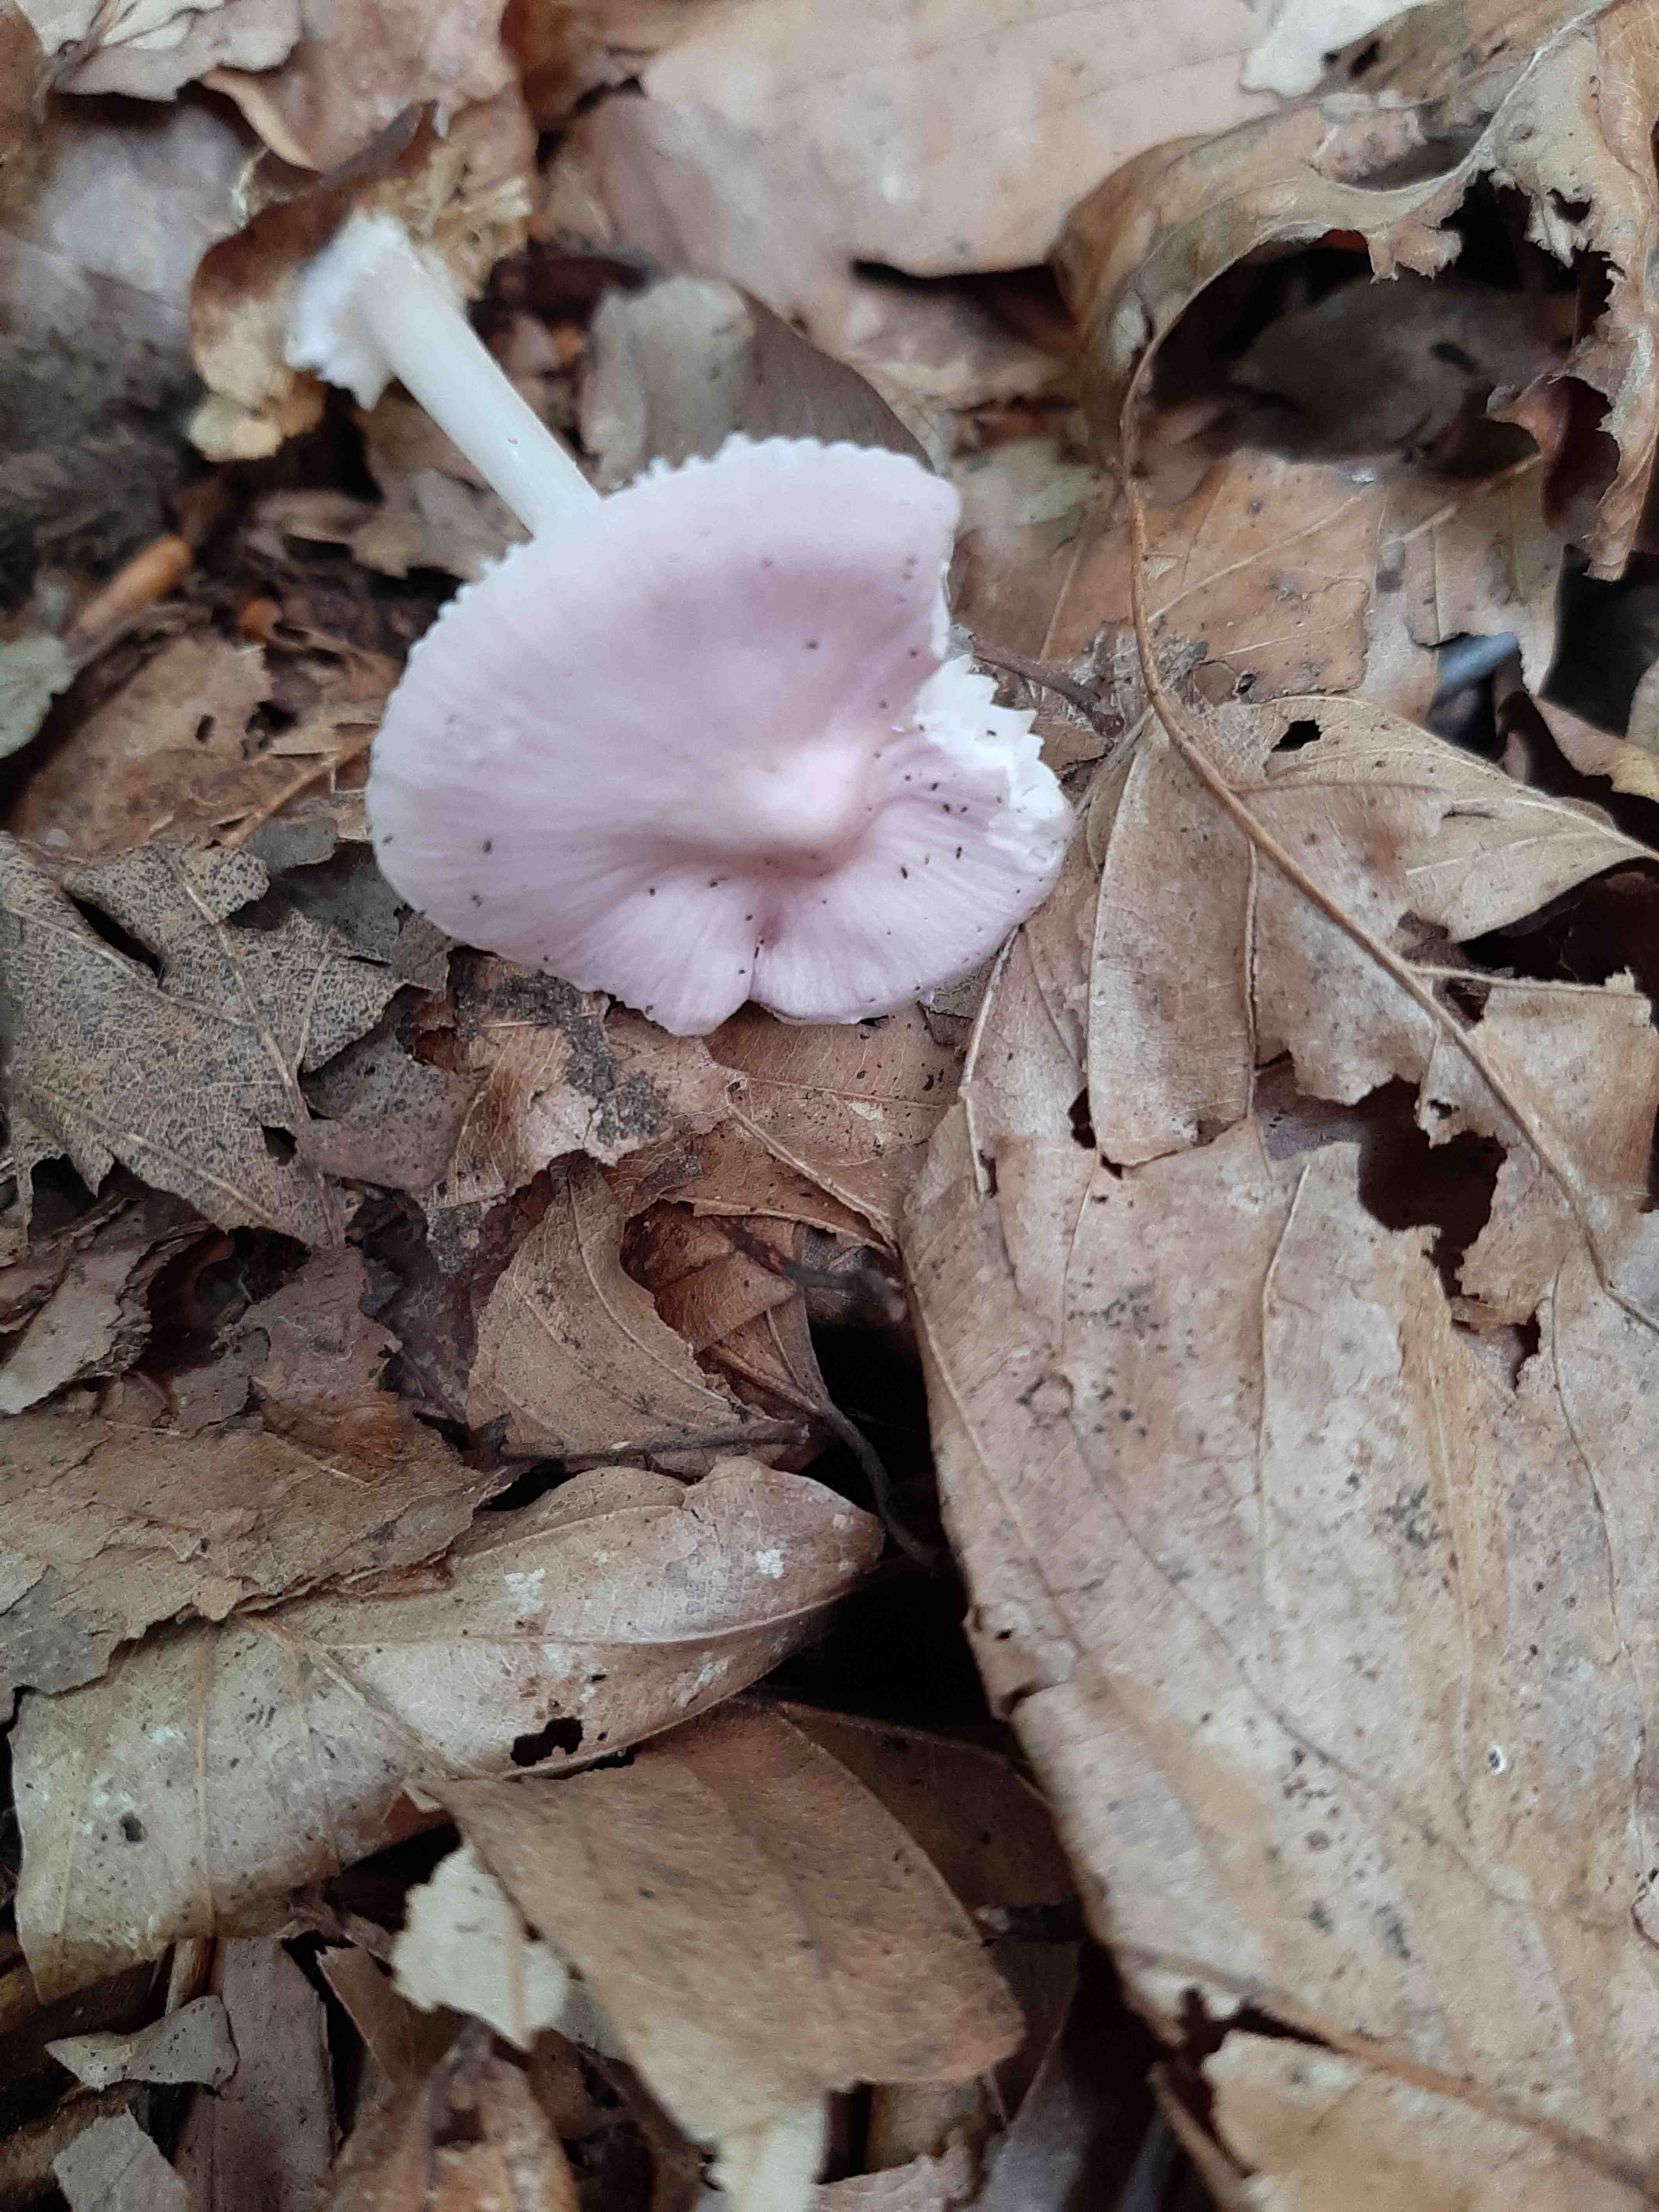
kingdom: Fungi
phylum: Basidiomycota
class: Agaricomycetes
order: Agaricales
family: Mycenaceae
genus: Mycena
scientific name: Mycena rosea
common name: rosa huesvamp
